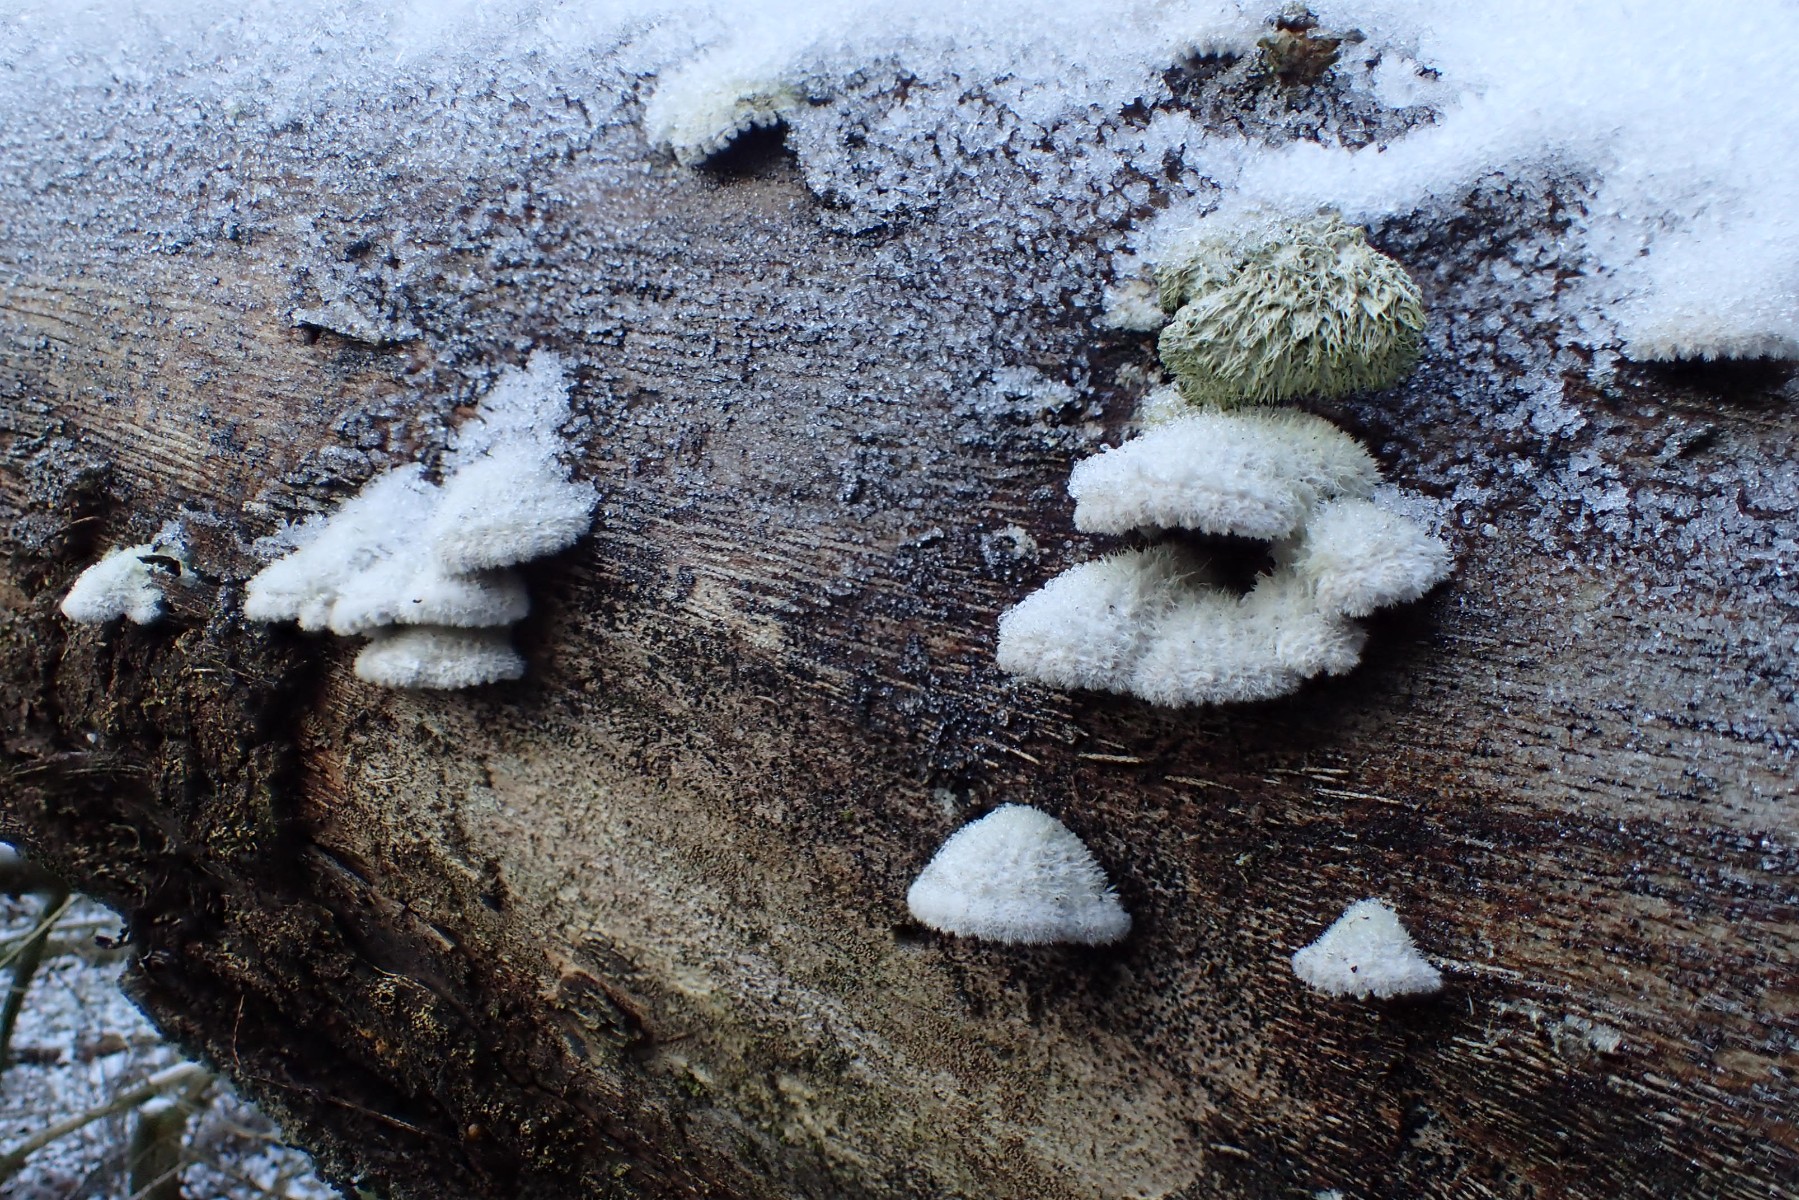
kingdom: Fungi
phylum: Basidiomycota
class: Agaricomycetes
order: Agaricales
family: Schizophyllaceae
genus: Schizophyllum
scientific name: Schizophyllum commune
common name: kløvblad
